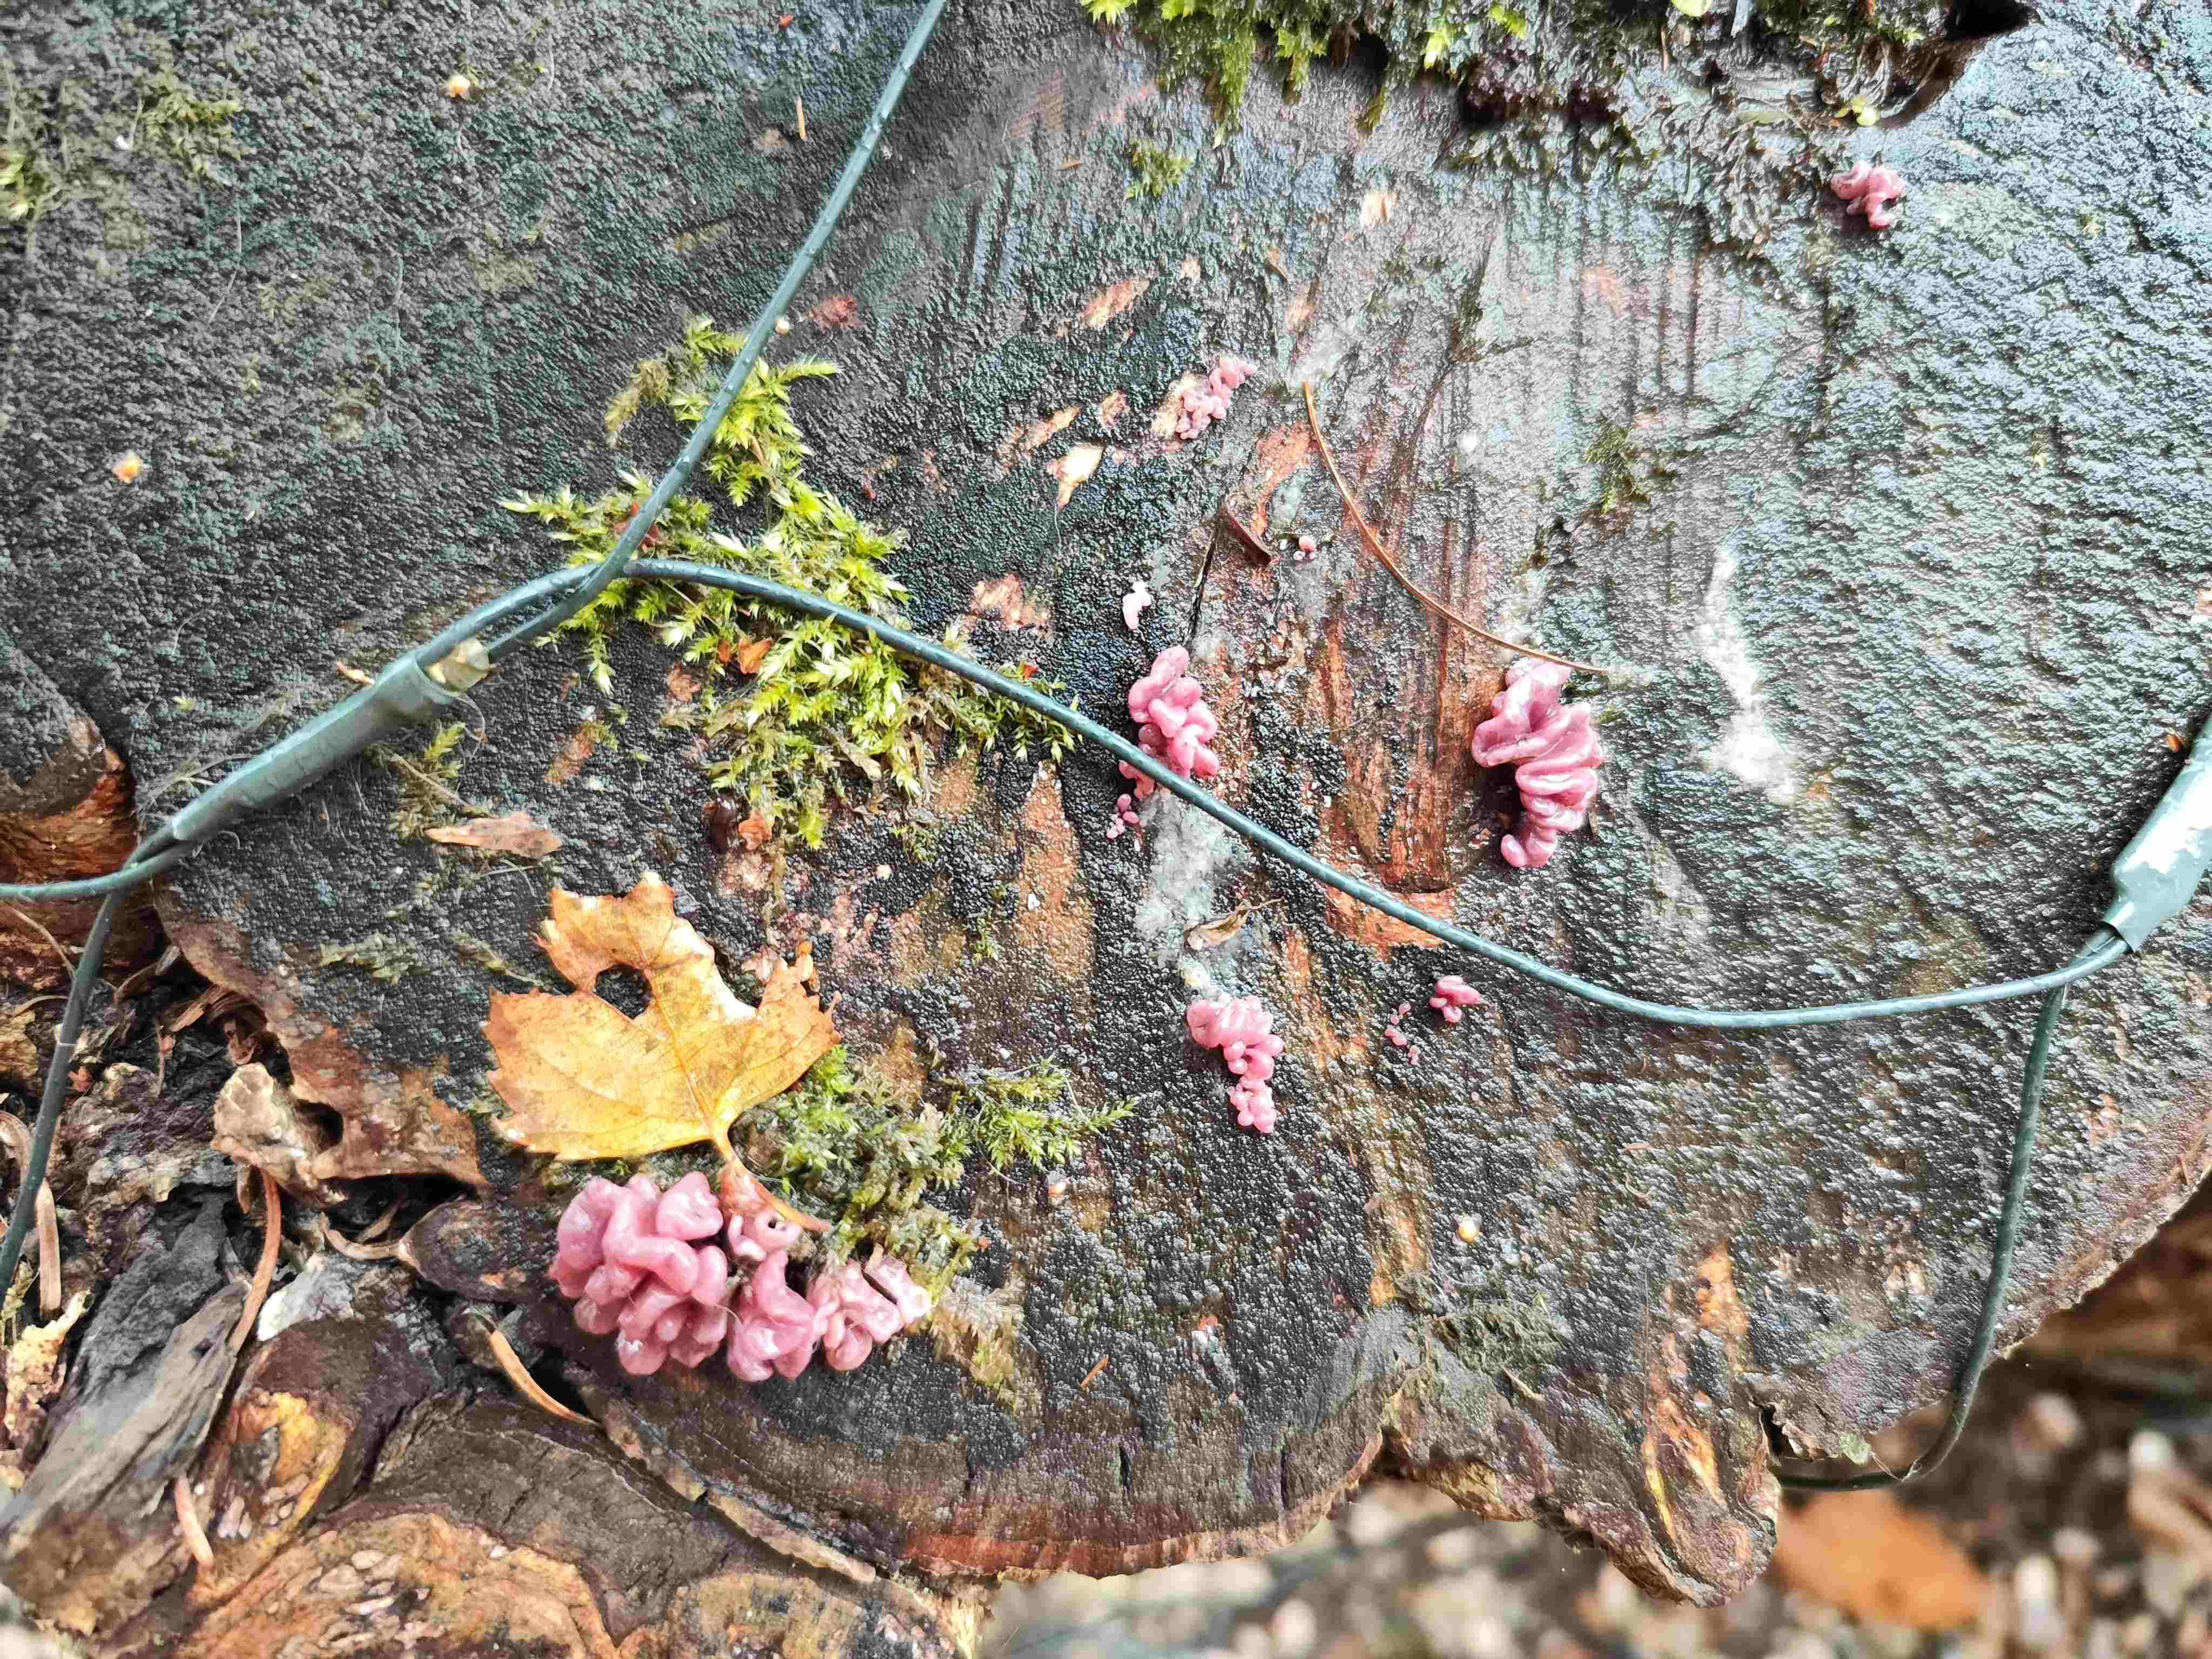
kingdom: Fungi
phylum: Ascomycota
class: Leotiomycetes
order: Helotiales
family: Gelatinodiscaceae
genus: Ascocoryne
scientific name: Ascocoryne sarcoides
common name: rødlilla sejskive
